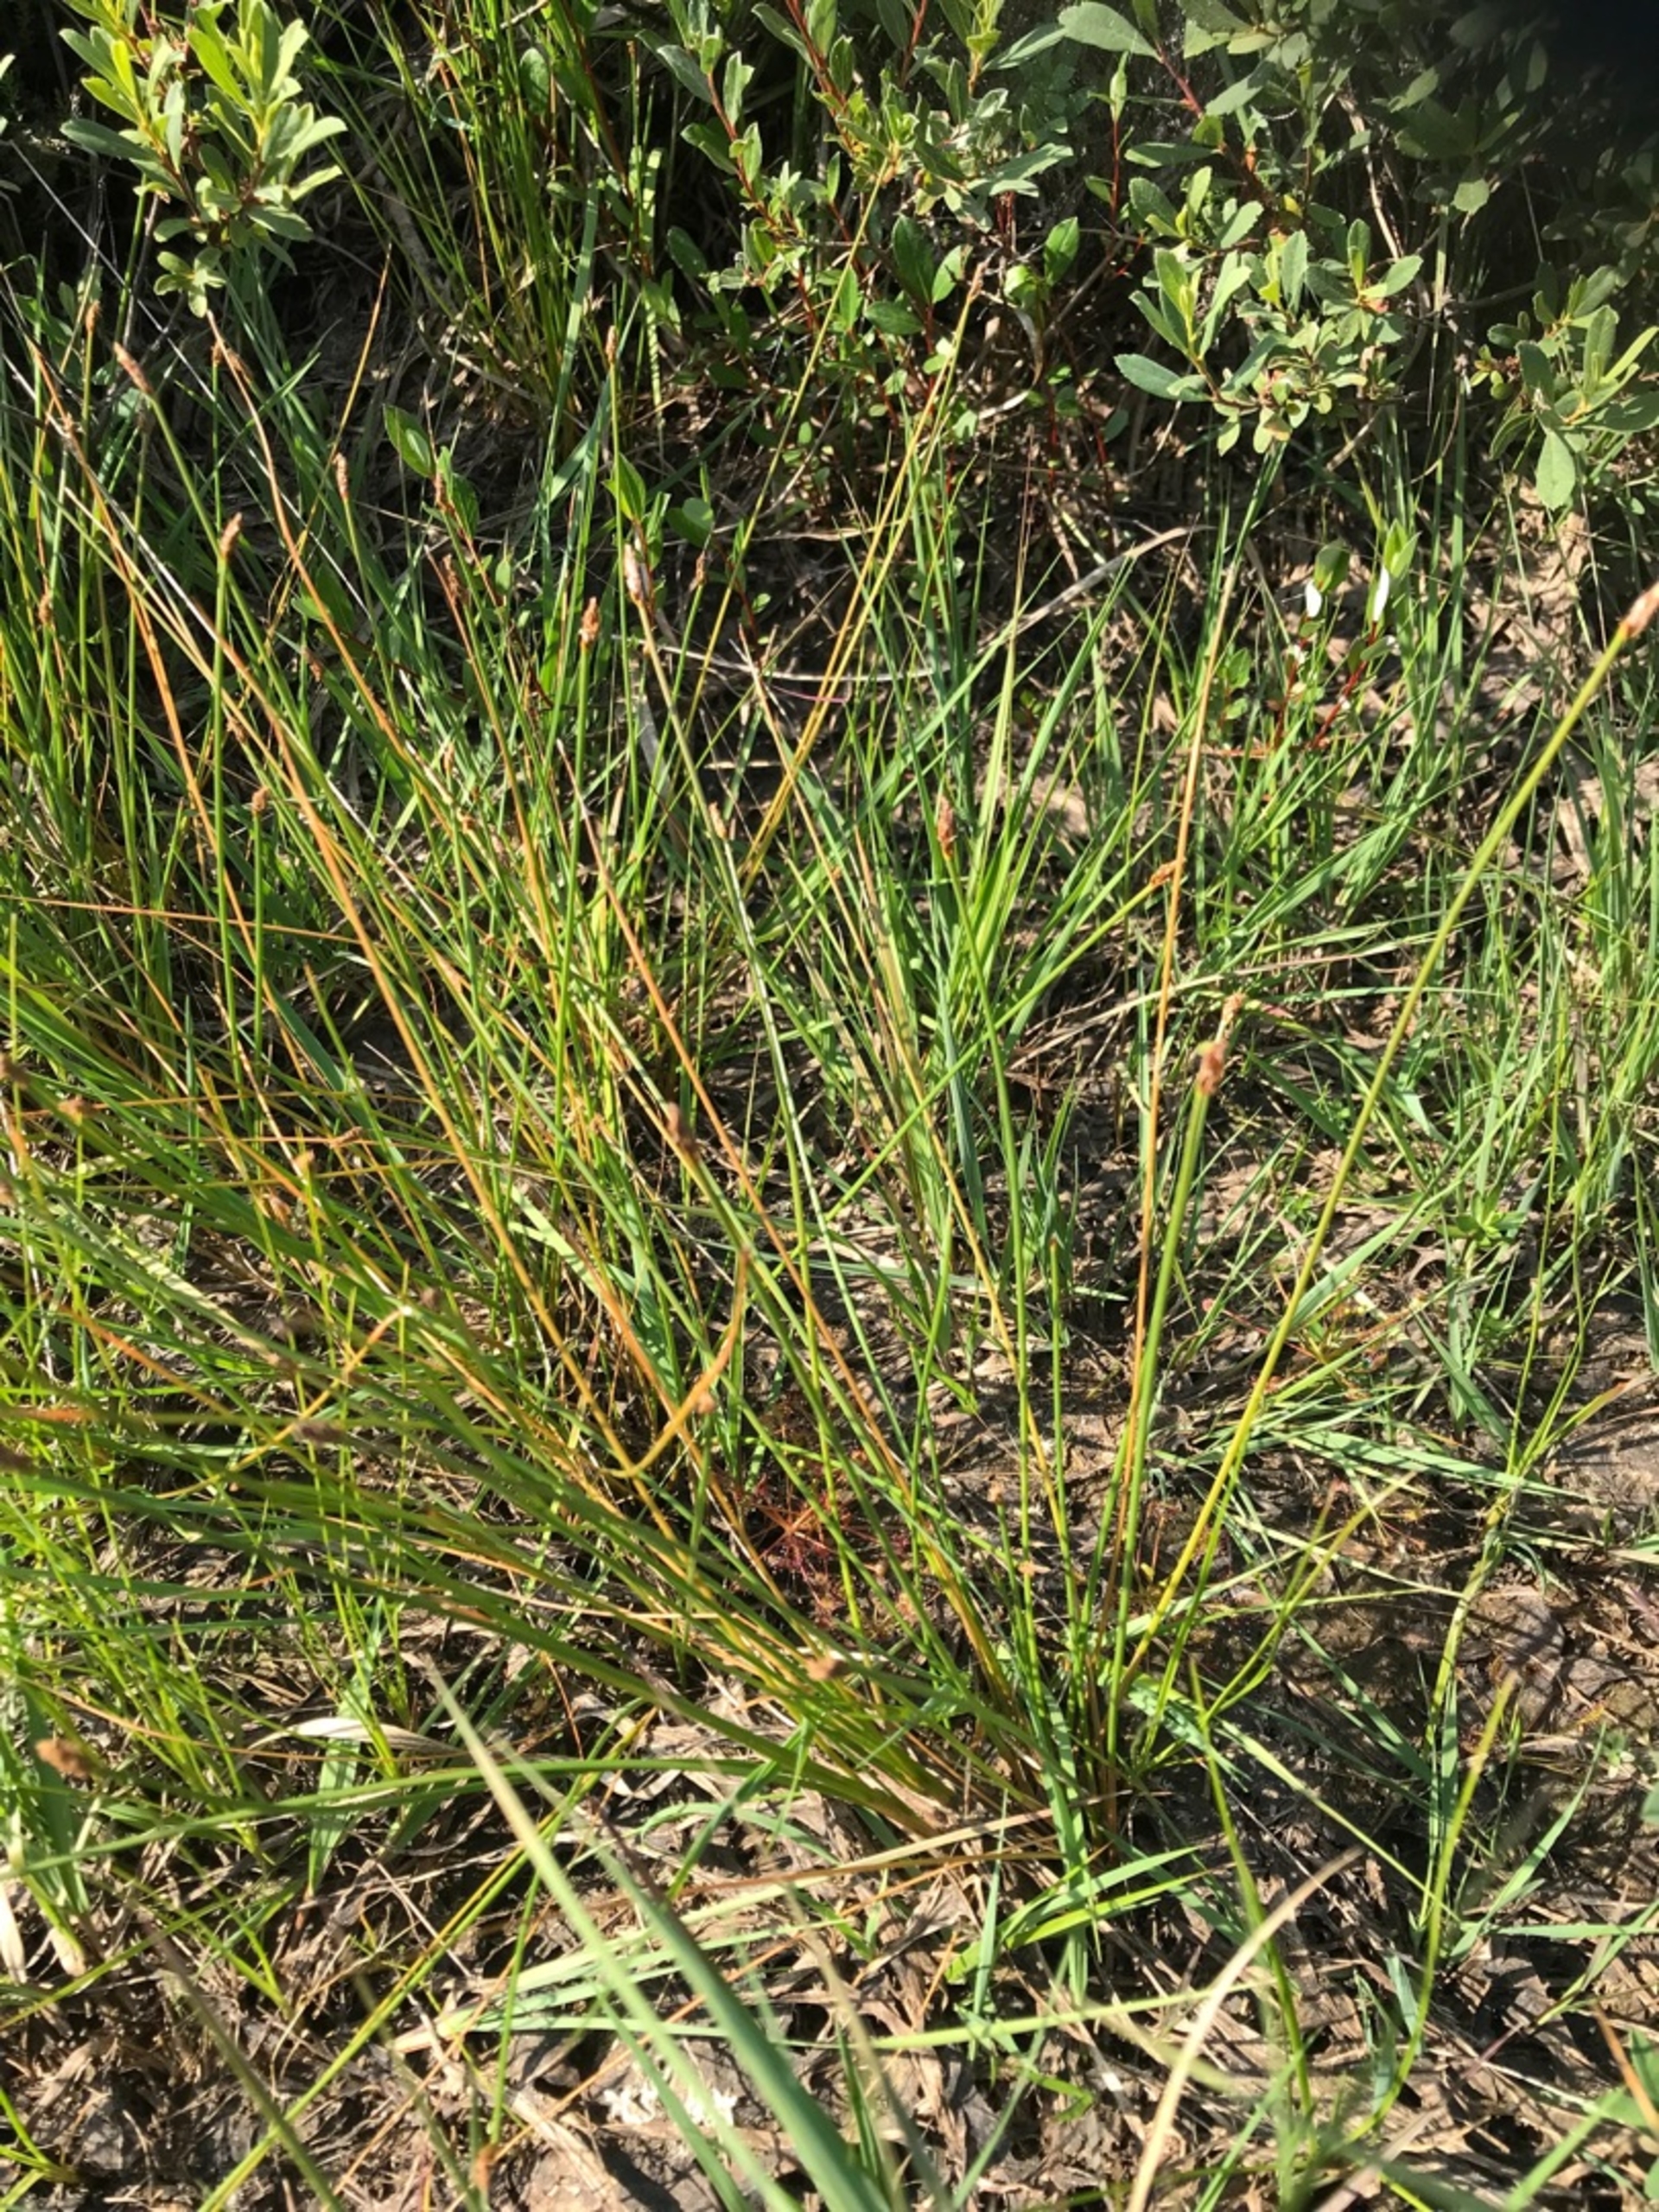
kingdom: Plantae
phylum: Tracheophyta
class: Liliopsida
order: Poales
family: Cyperaceae
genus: Eleocharis
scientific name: Eleocharis multicaulis
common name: Mangestænglet sumpstrå
